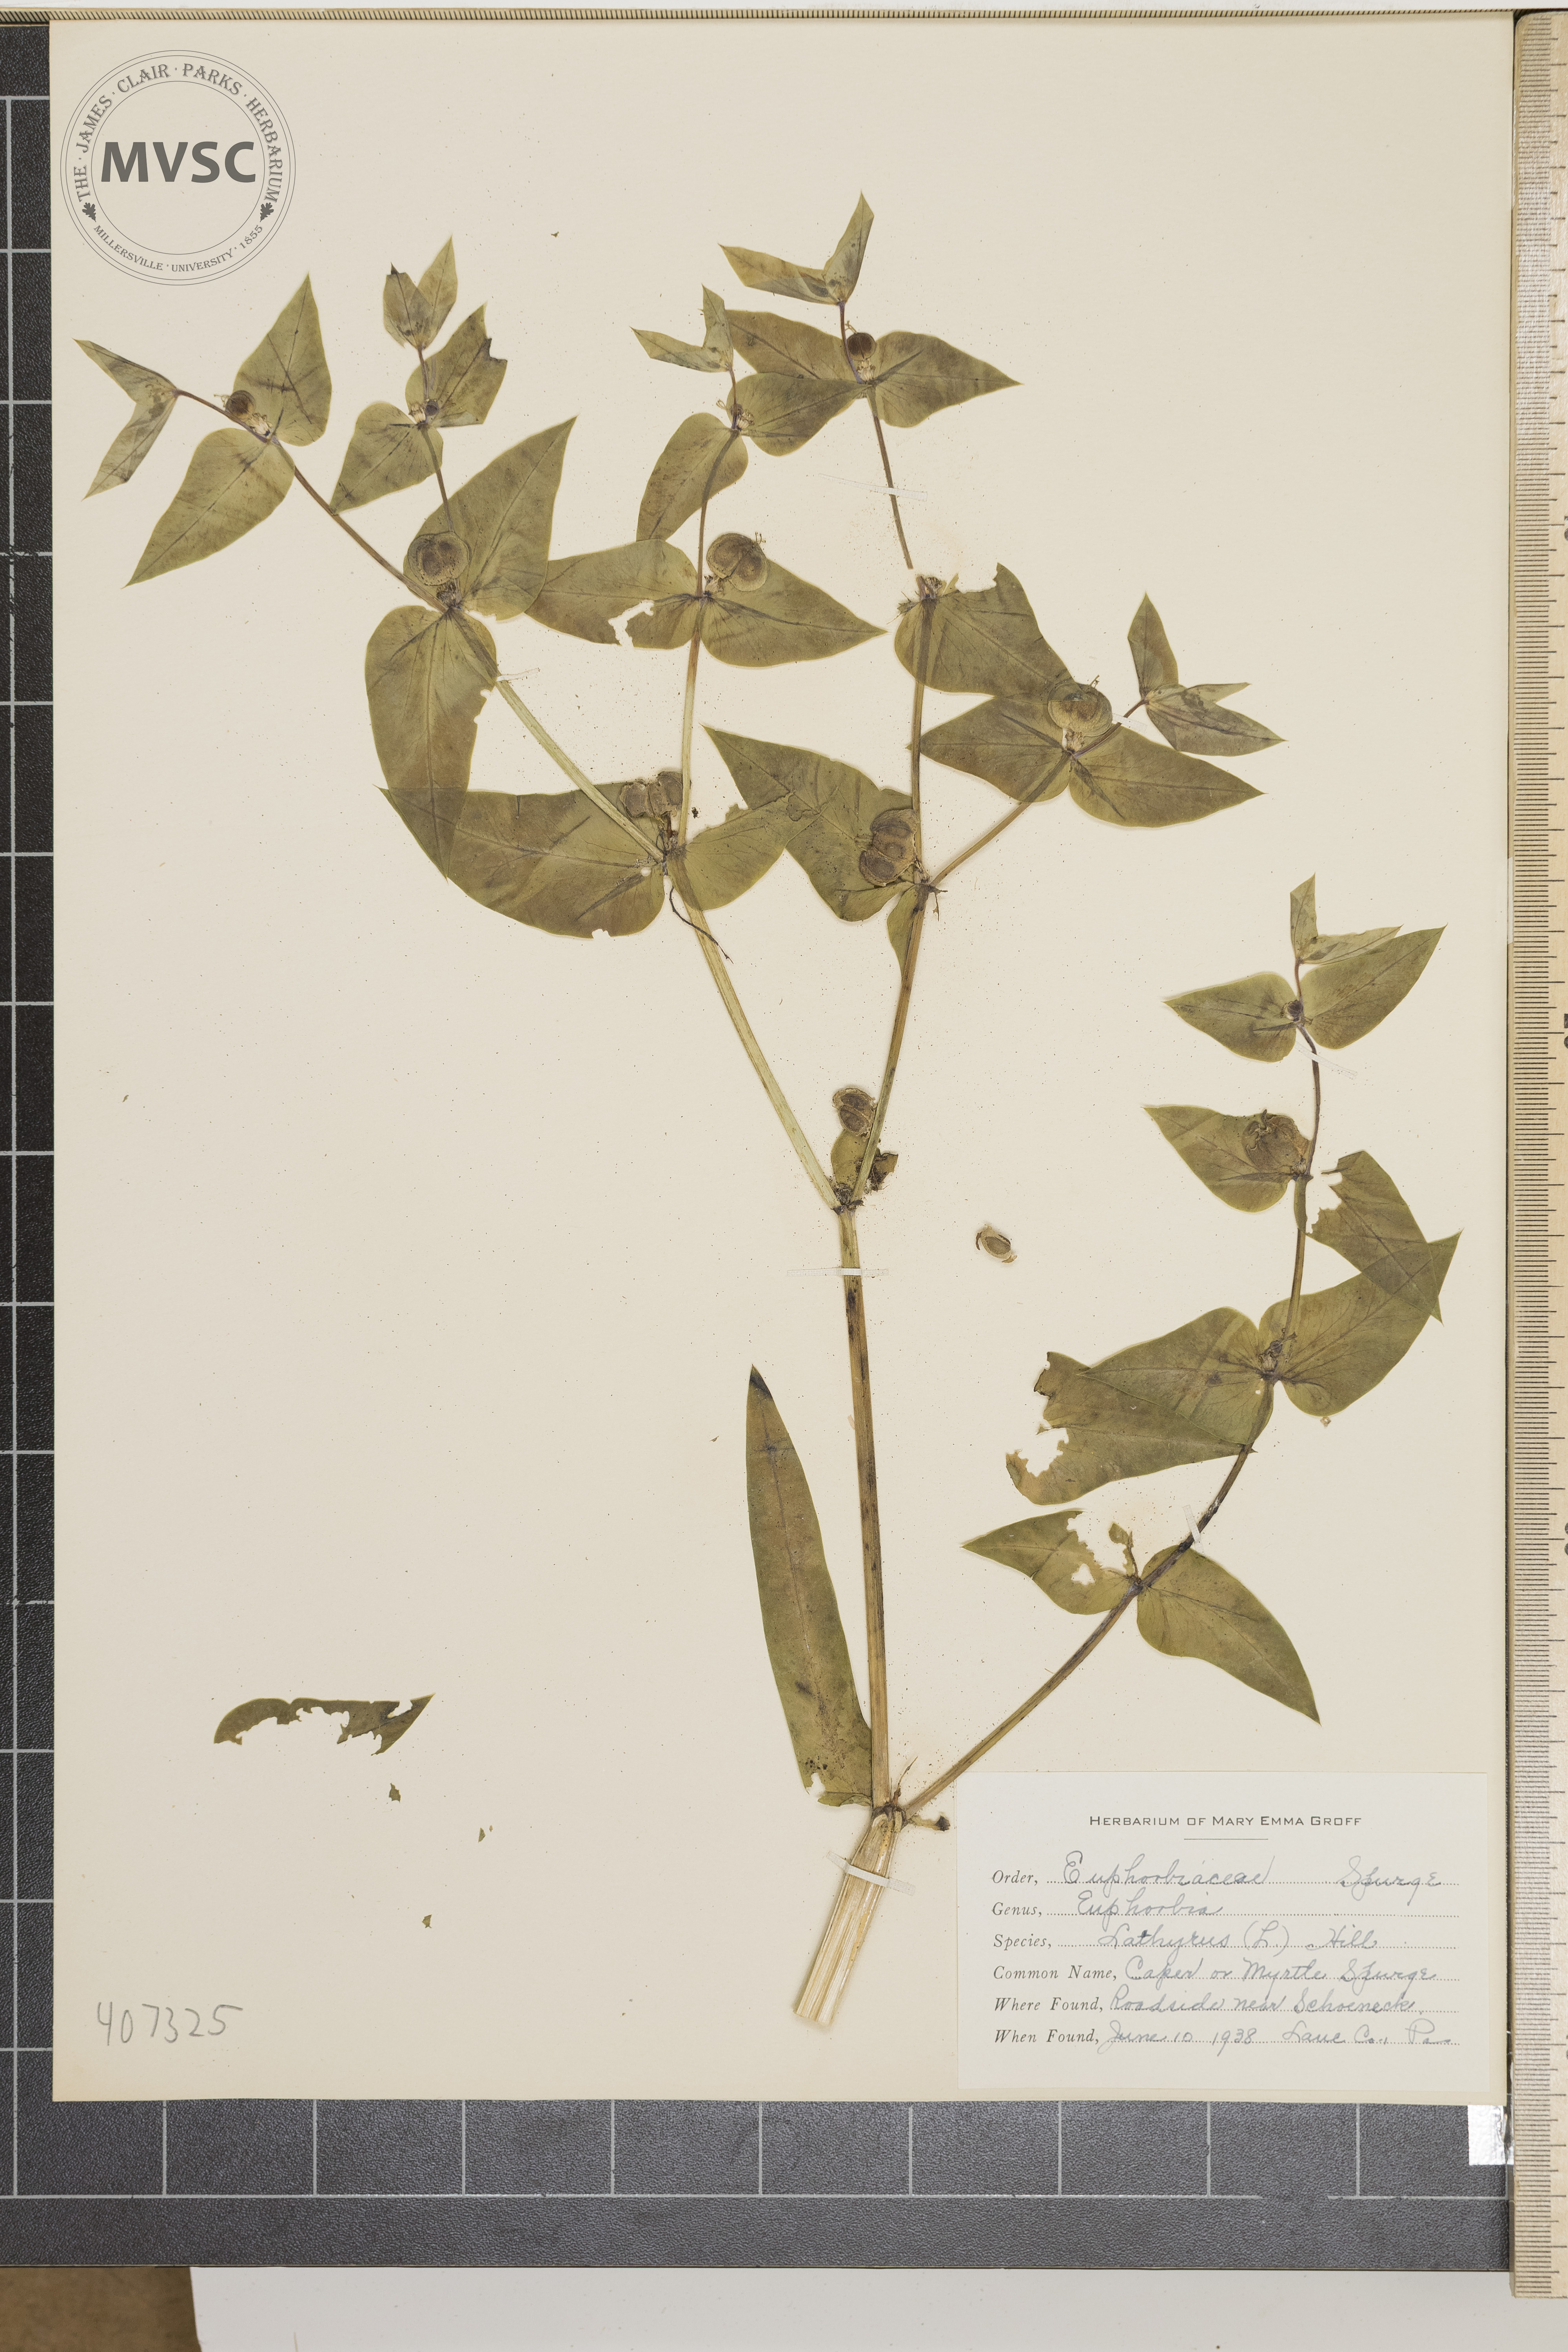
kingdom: Plantae
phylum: Tracheophyta
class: Magnoliopsida
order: Malpighiales
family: Euphorbiaceae
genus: Euphorbia
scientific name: Euphorbia lathyris
